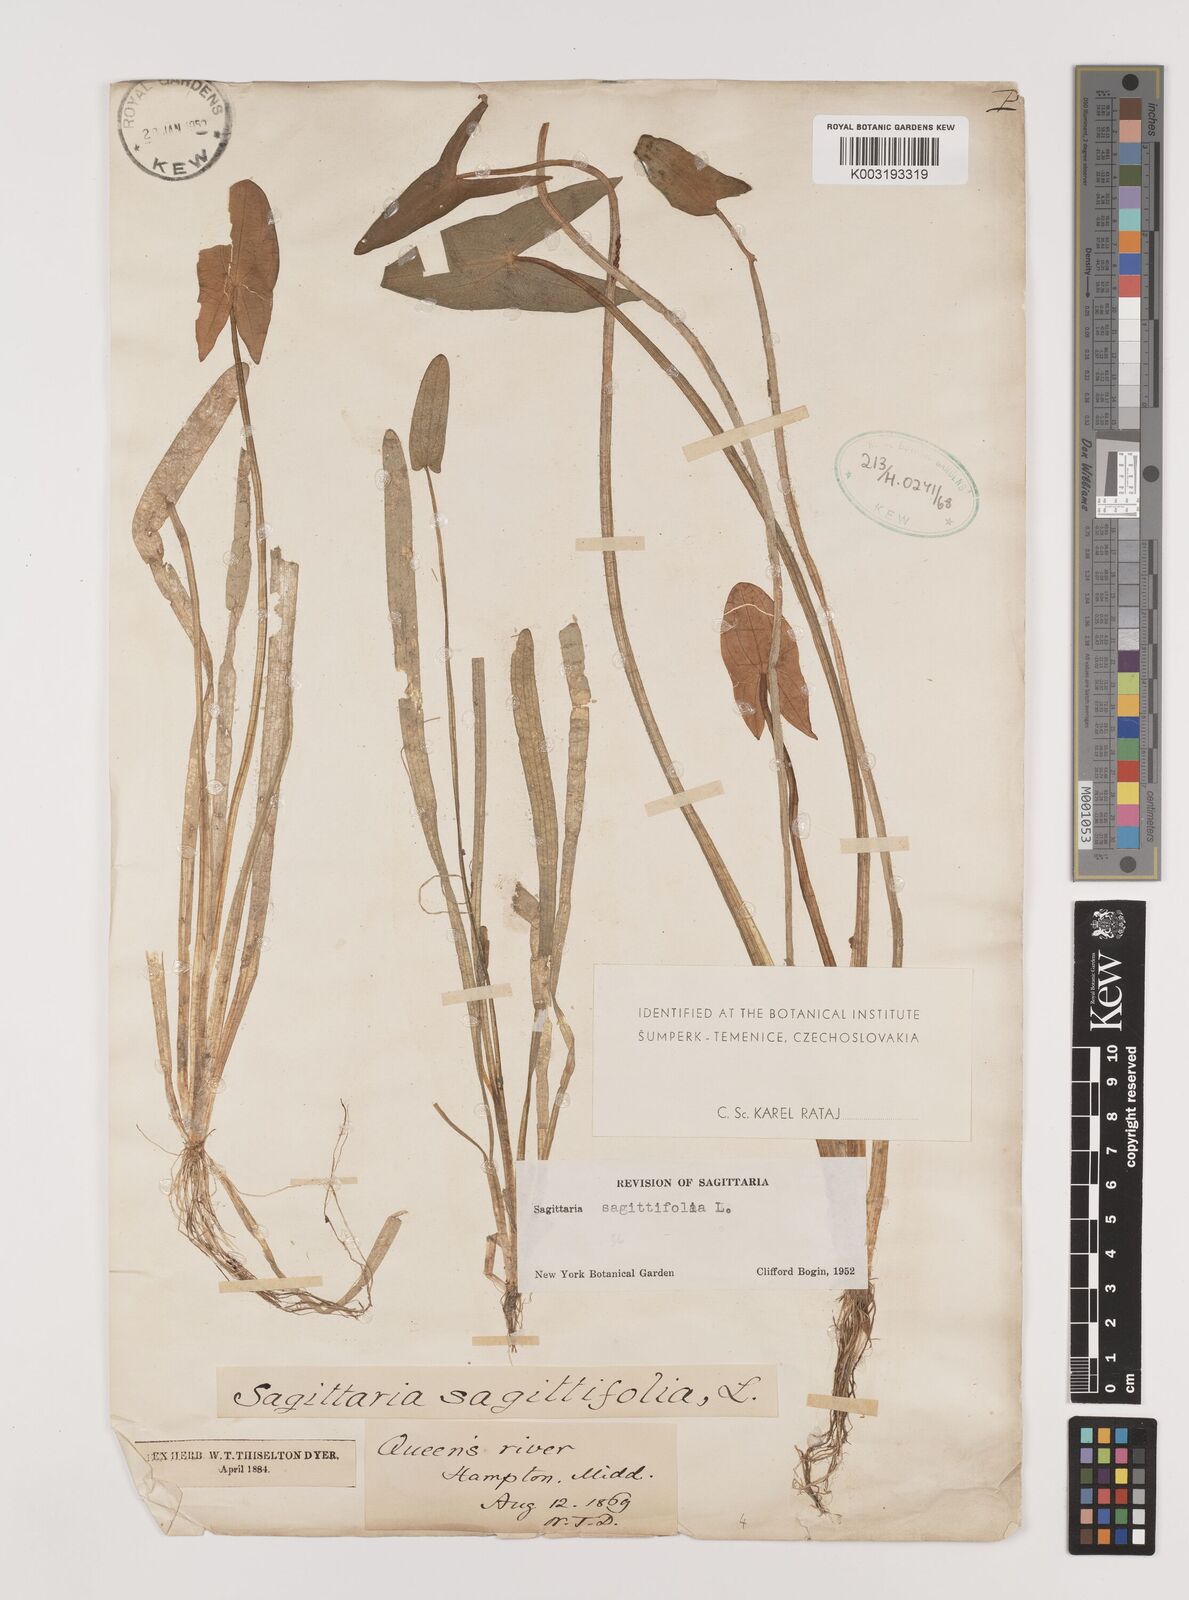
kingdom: Plantae
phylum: Tracheophyta
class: Liliopsida
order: Alismatales
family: Alismataceae
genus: Sagittaria
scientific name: Sagittaria sagittifolia
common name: Arrowhead
